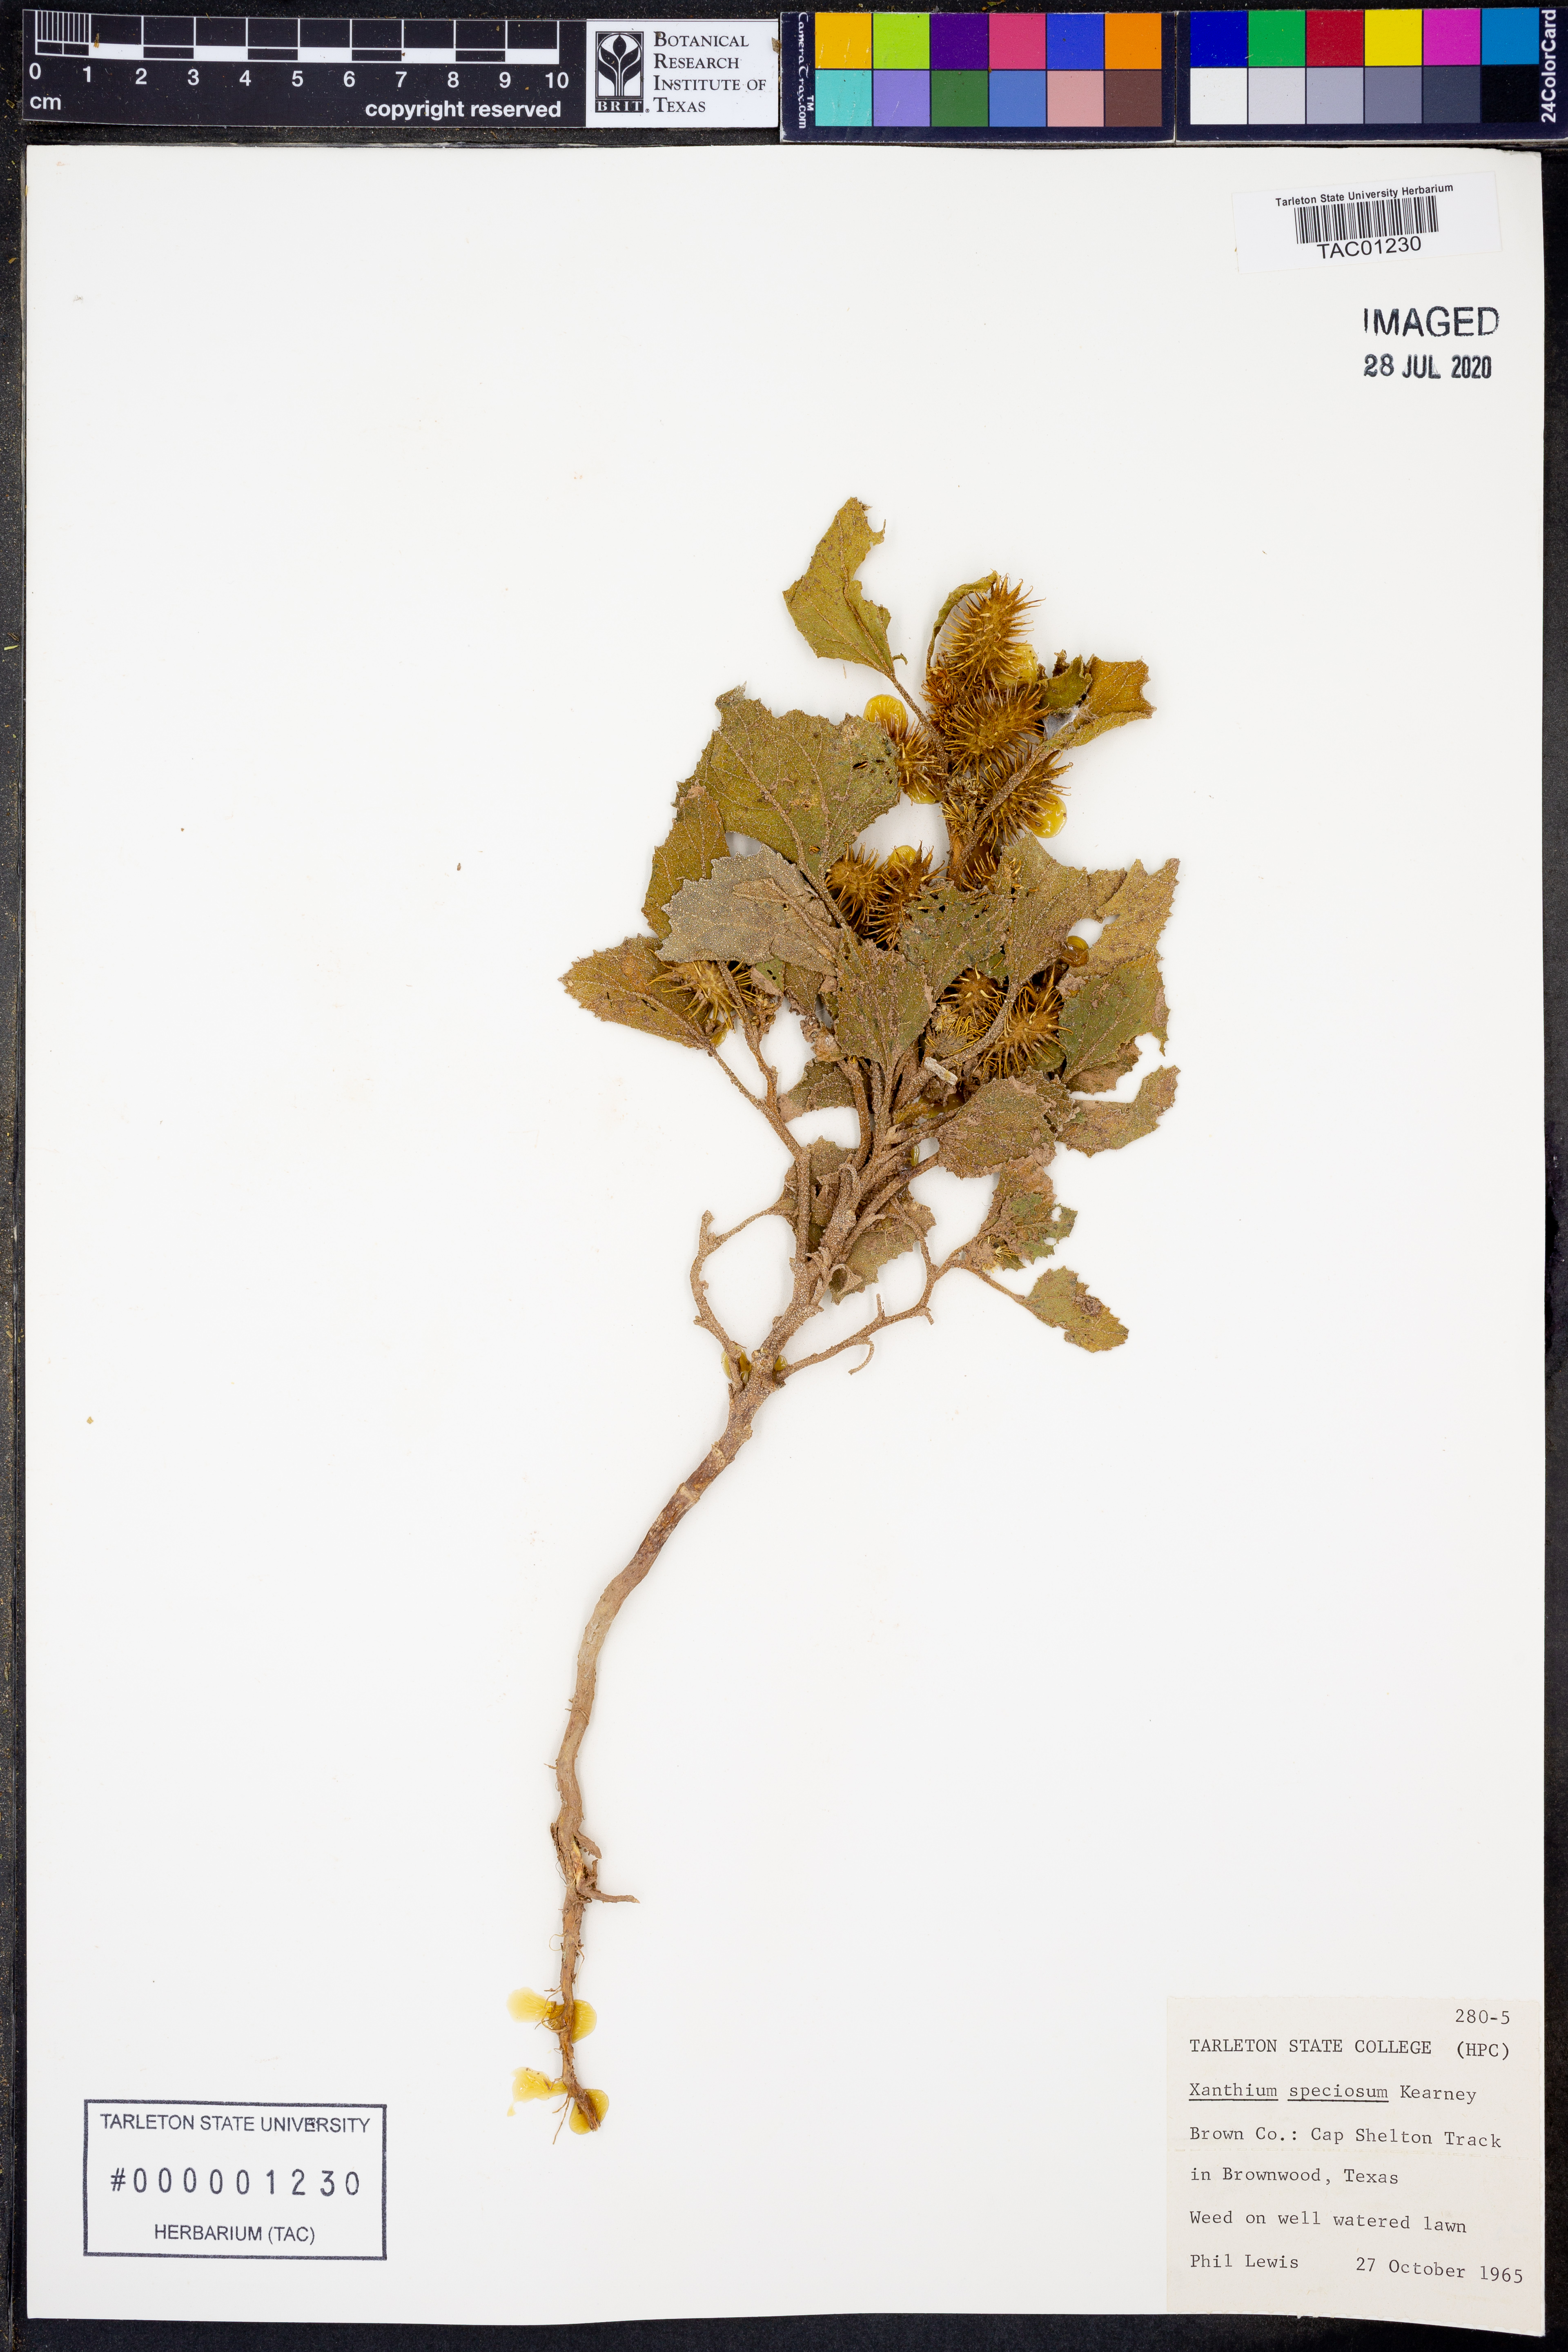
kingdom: Plantae
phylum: Tracheophyta
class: Magnoliopsida
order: Asterales
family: Asteraceae
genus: Xanthium
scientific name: Xanthium orientale
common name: Californian burr
